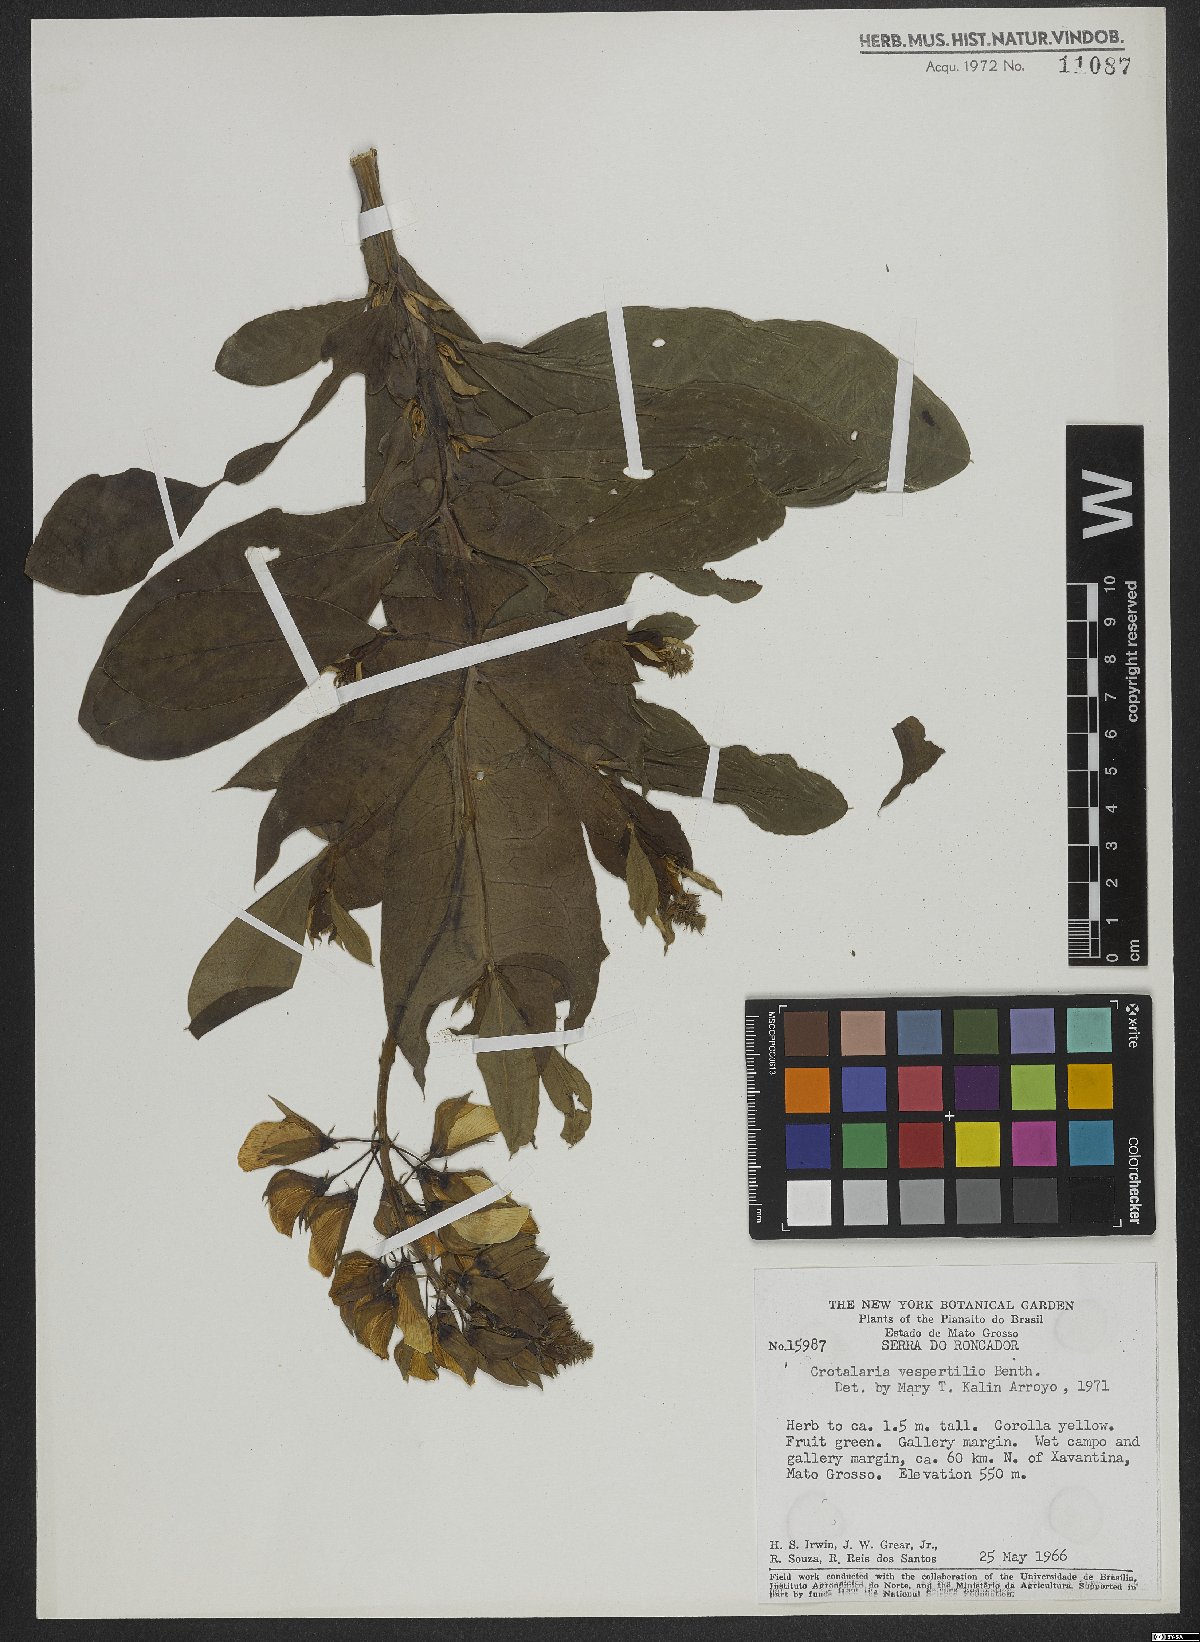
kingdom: Plantae
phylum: Tracheophyta
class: Magnoliopsida
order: Fabales
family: Fabaceae
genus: Crotalaria
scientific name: Crotalaria vespertilio
